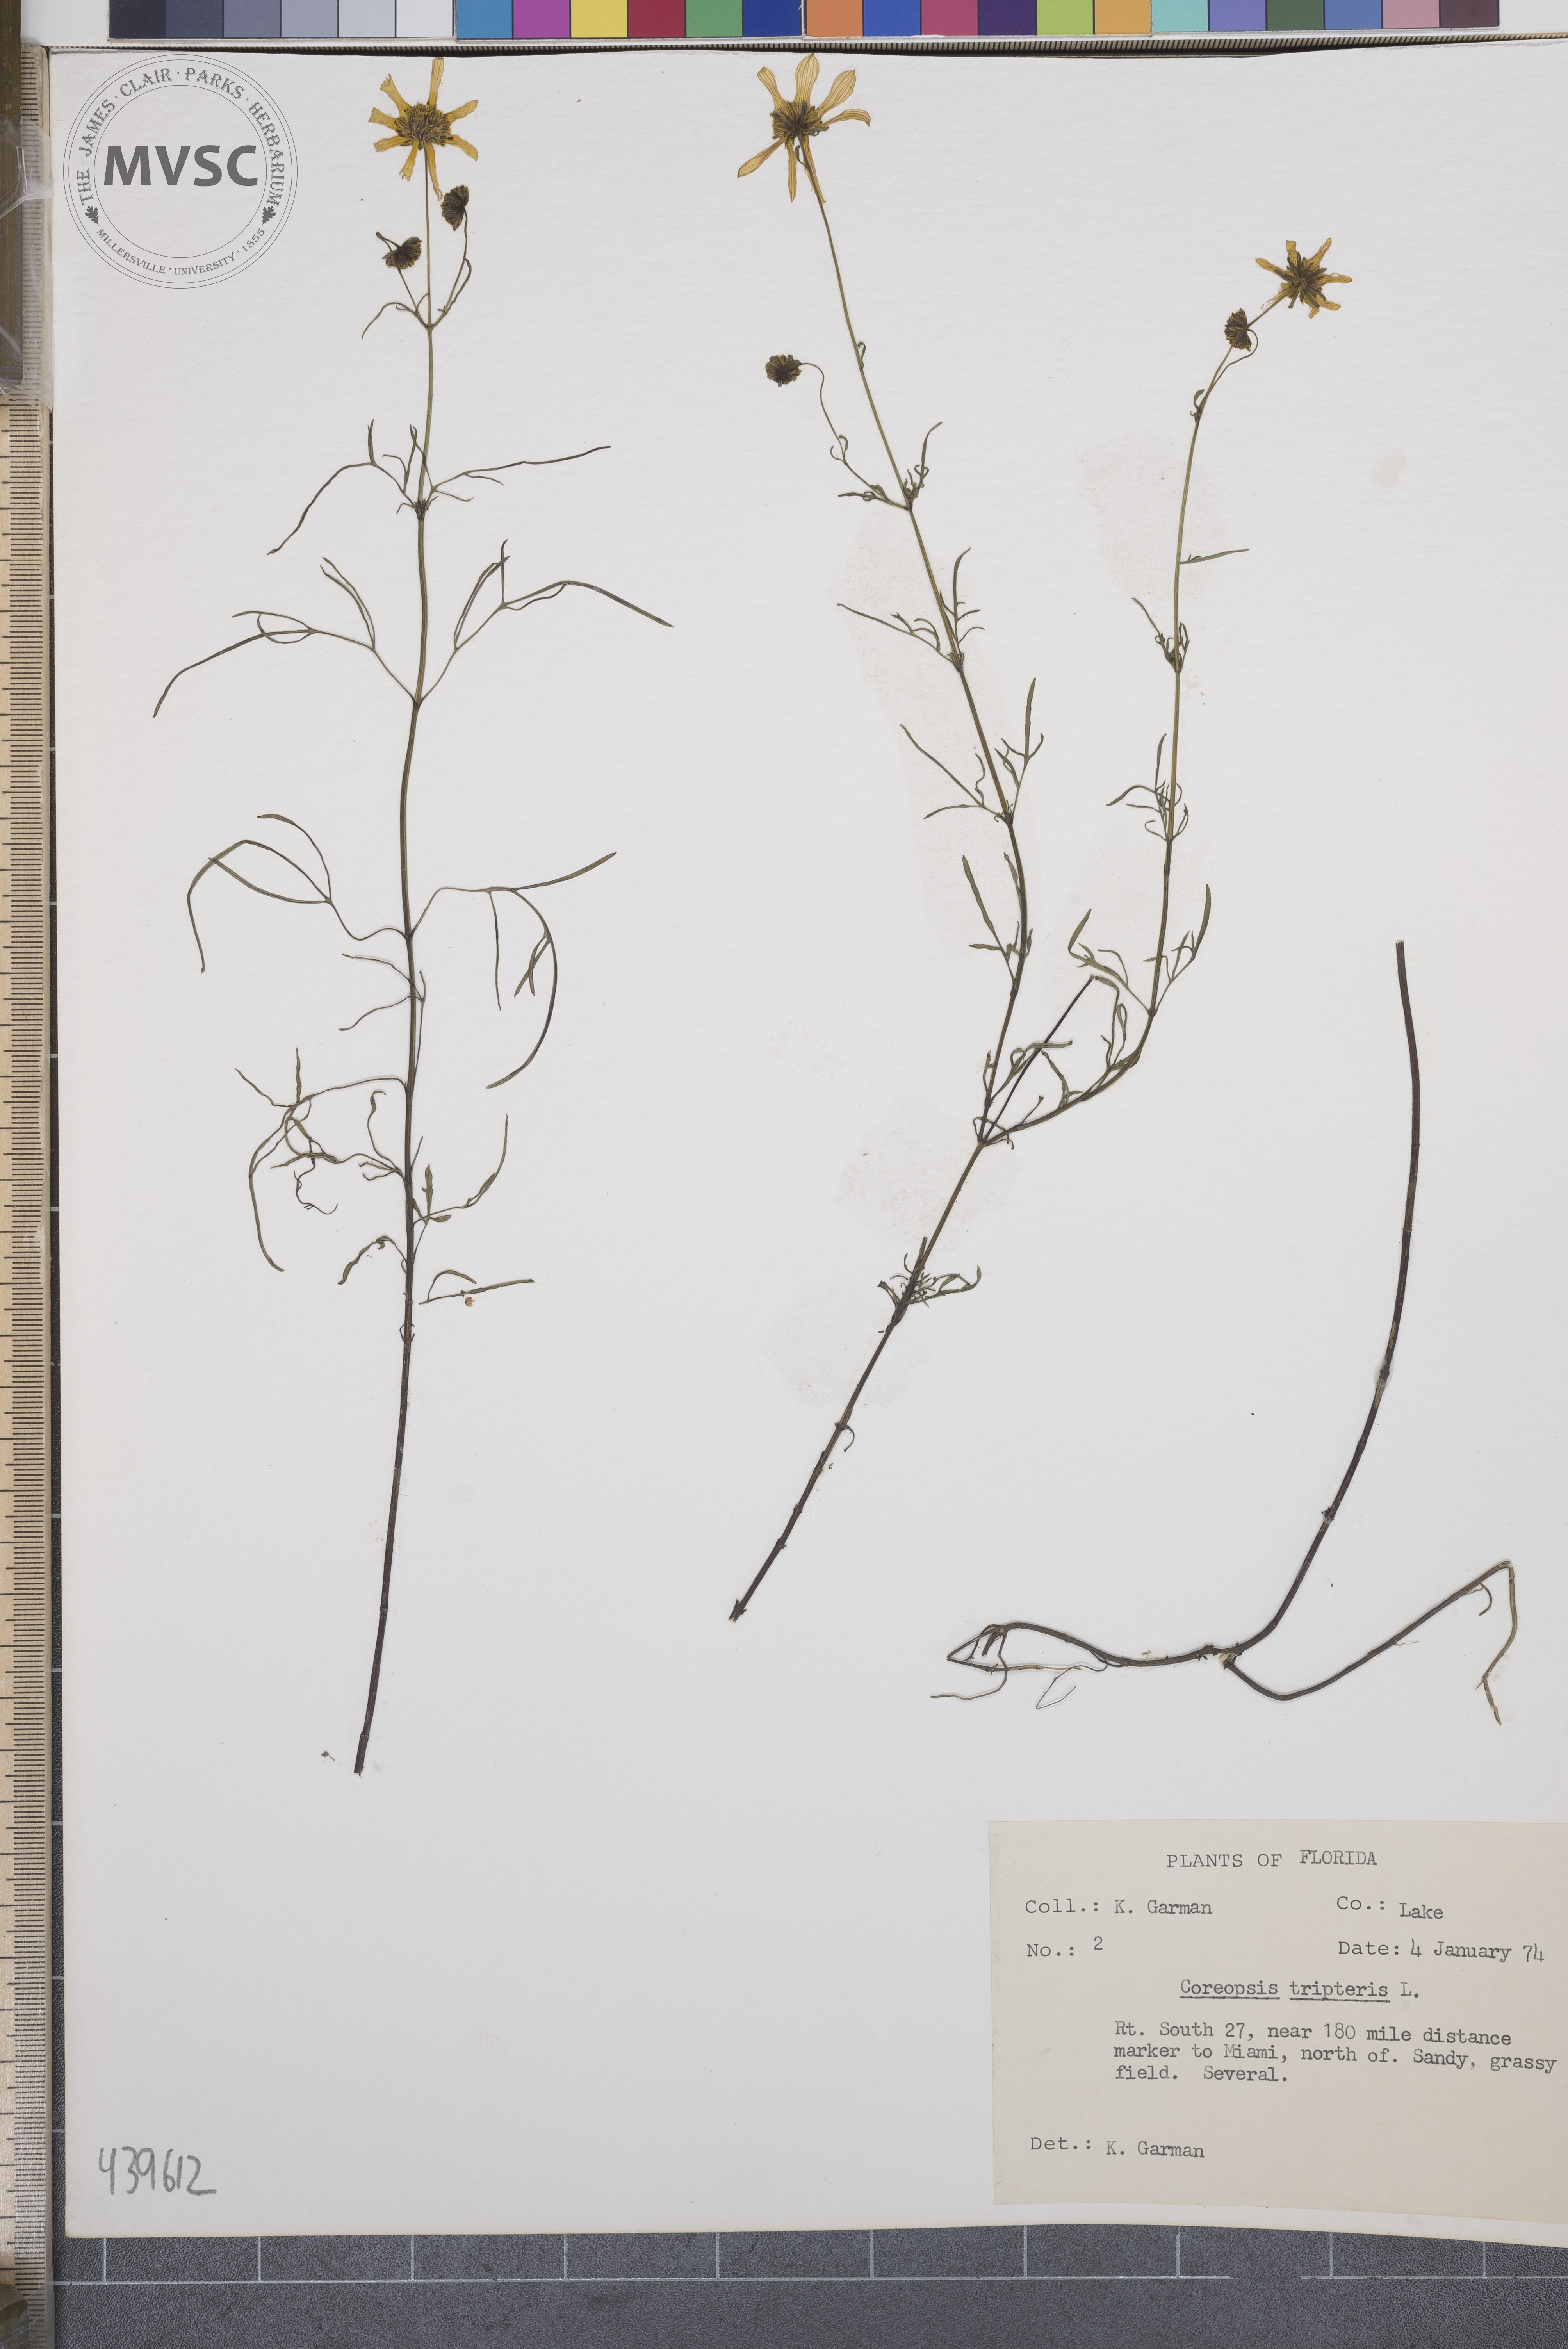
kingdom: Plantae
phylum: Tracheophyta
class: Magnoliopsida
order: Asterales
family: Asteraceae
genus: Coreopsis
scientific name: Coreopsis tinctoria
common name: Garden tickseed
